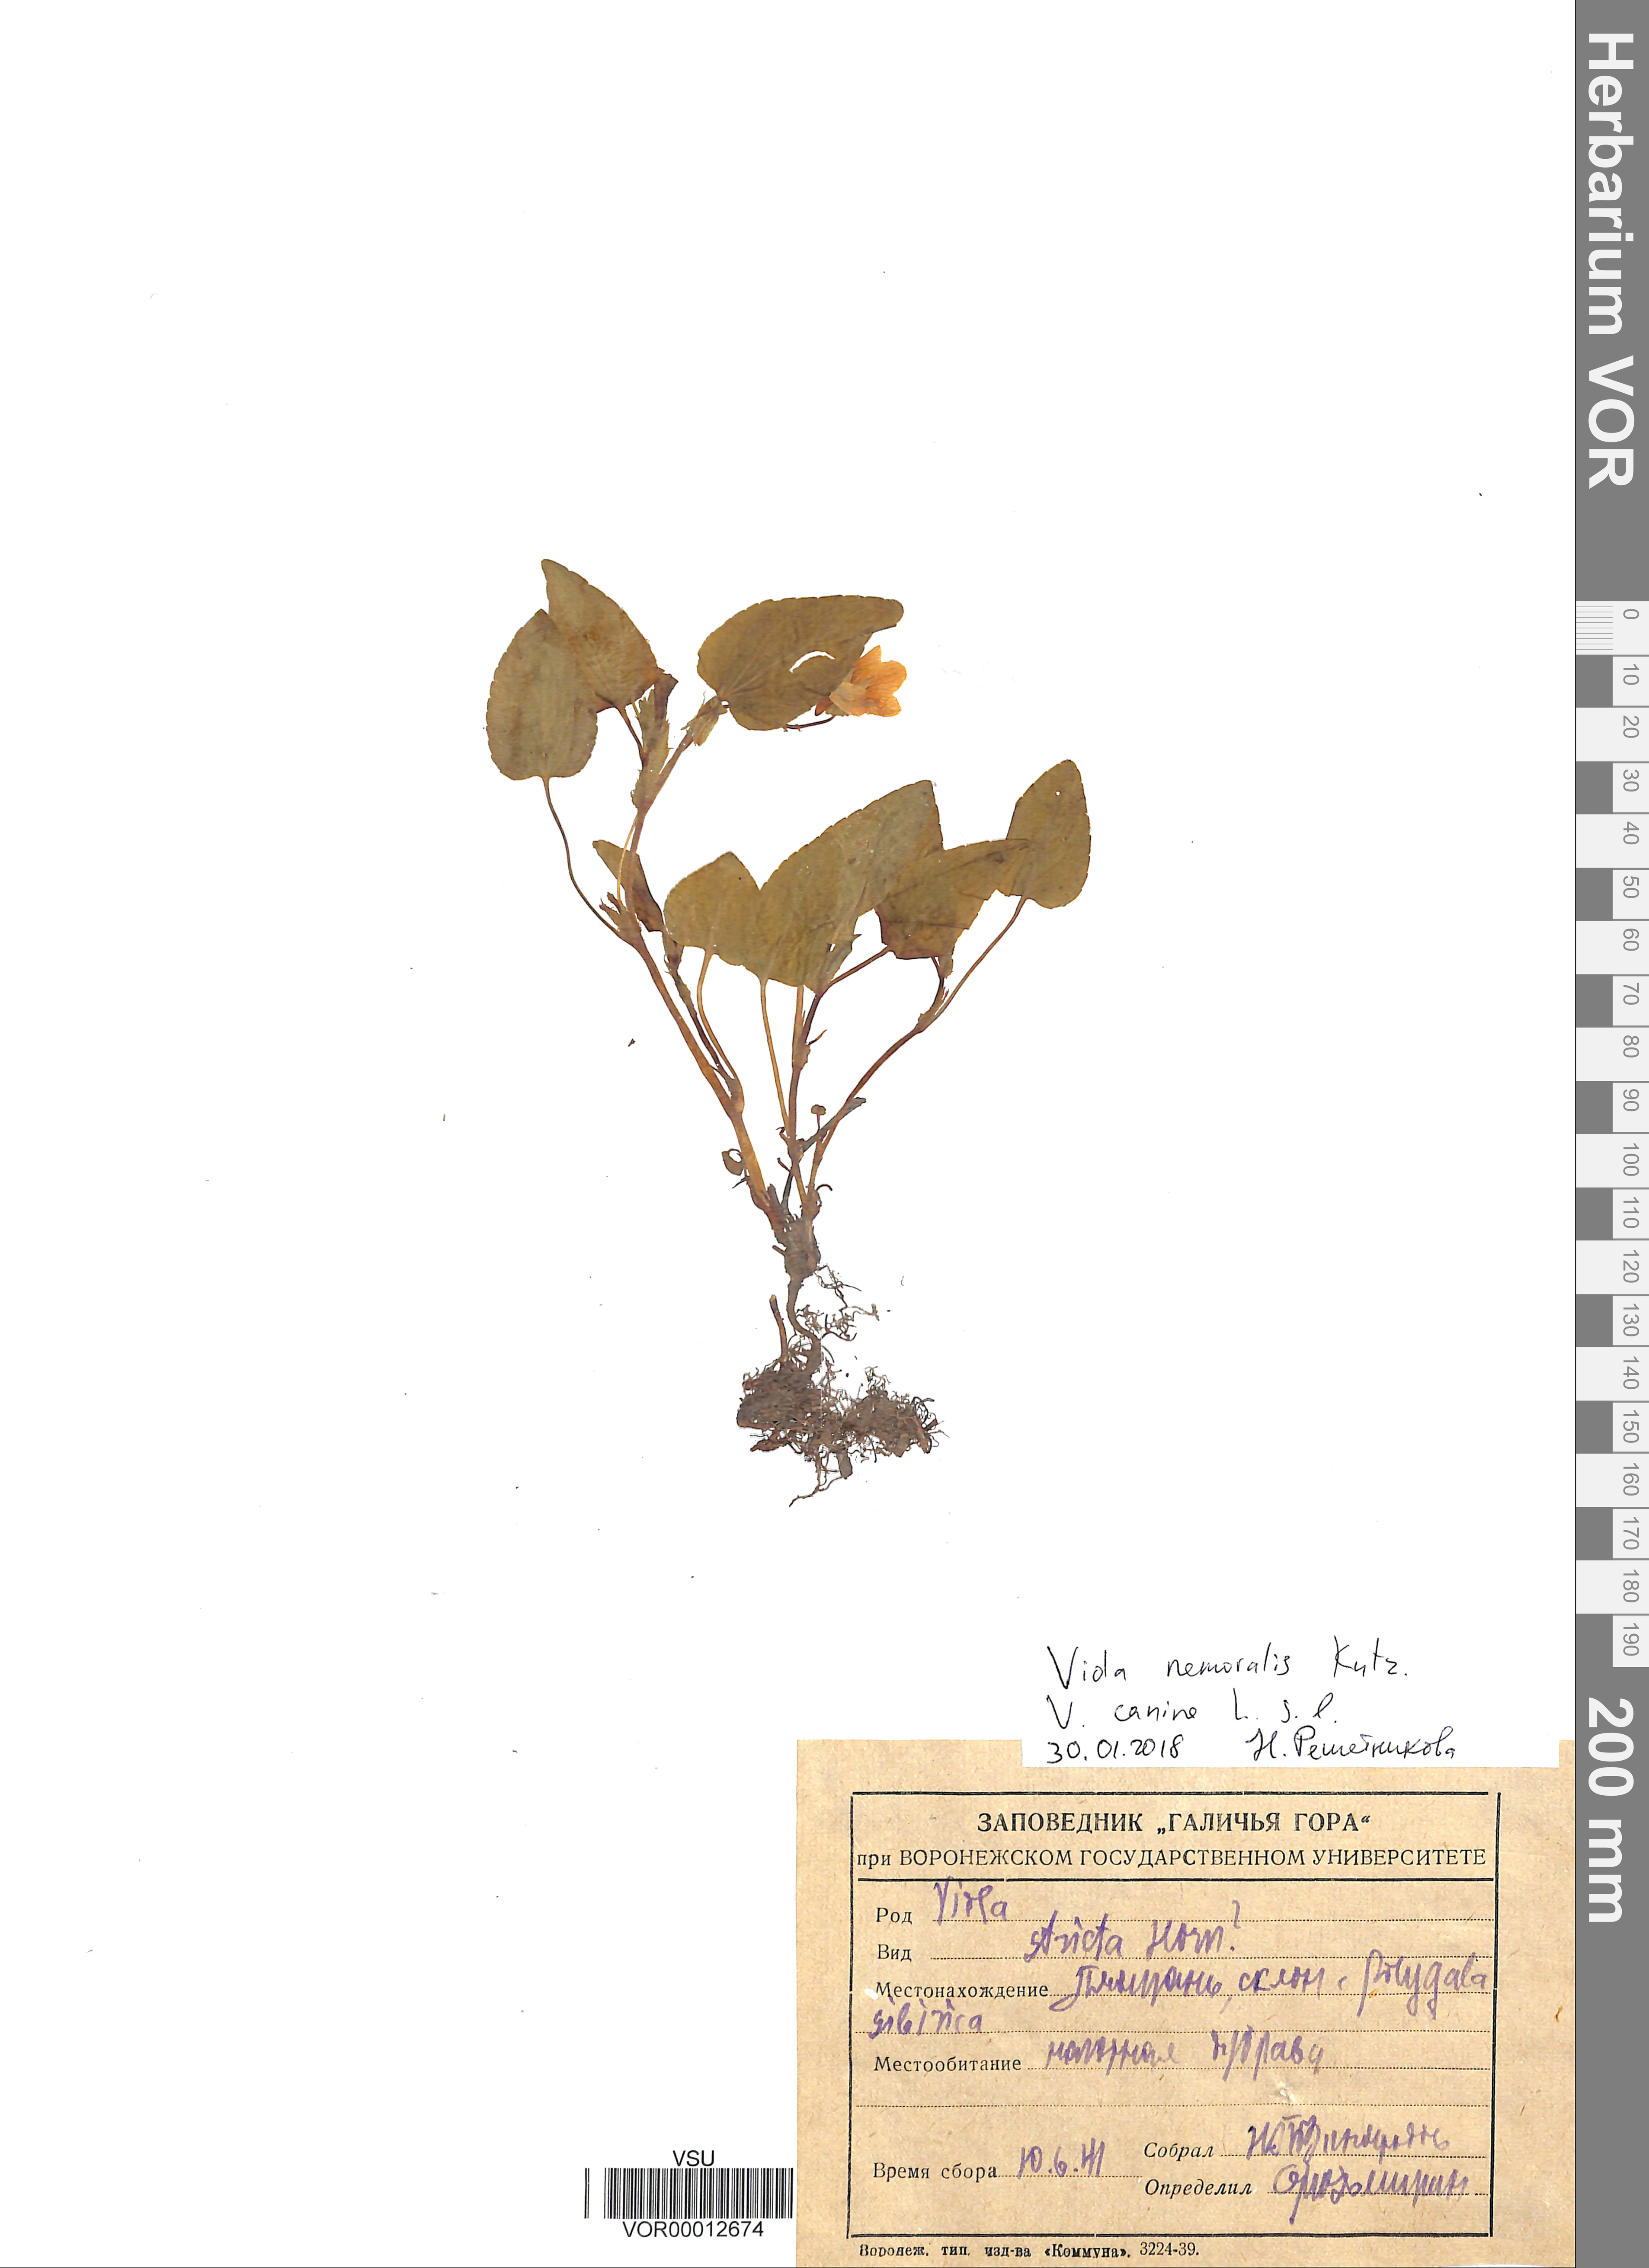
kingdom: Plantae
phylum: Tracheophyta
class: Magnoliopsida
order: Malpighiales
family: Violaceae
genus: Viola
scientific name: Viola
